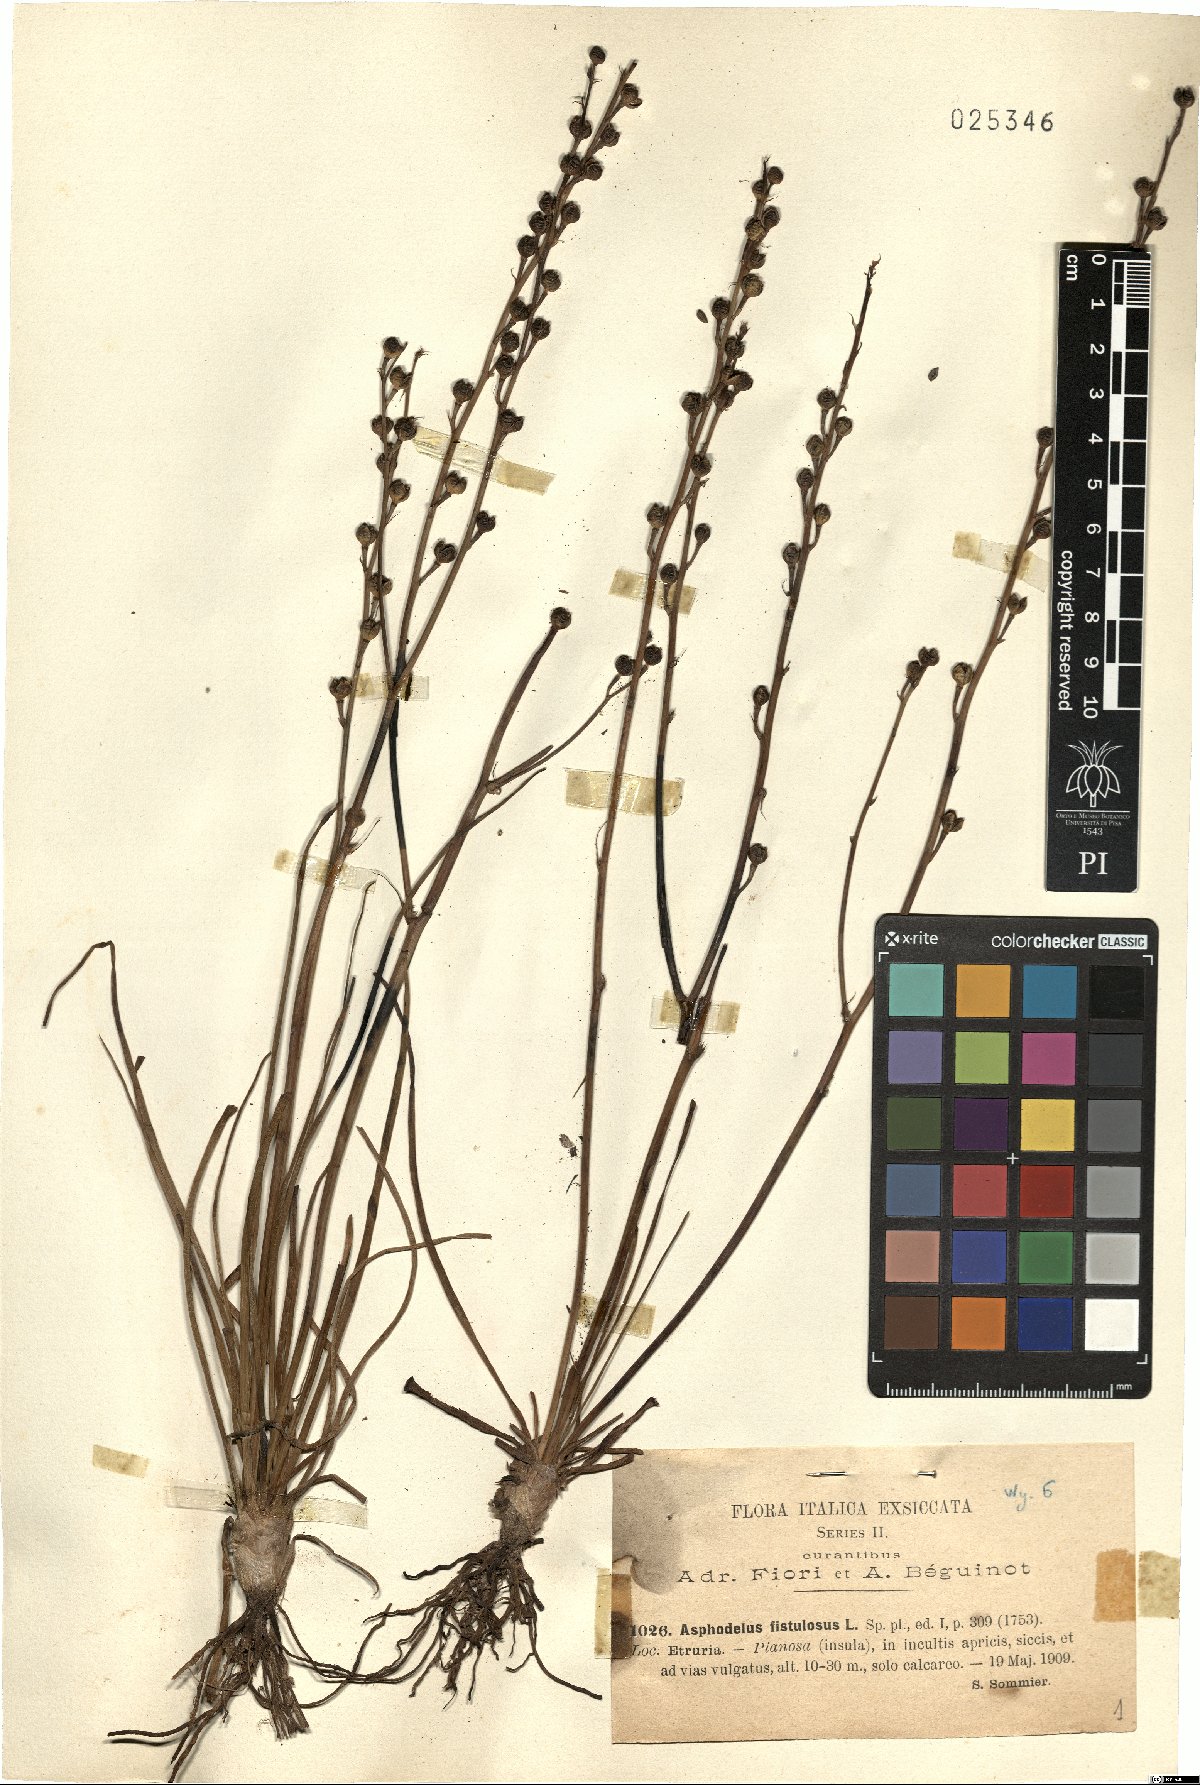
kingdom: Plantae
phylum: Tracheophyta
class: Liliopsida
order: Asparagales
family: Asphodelaceae
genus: Asphodelus
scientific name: Asphodelus fistulosus
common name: Onionweed
